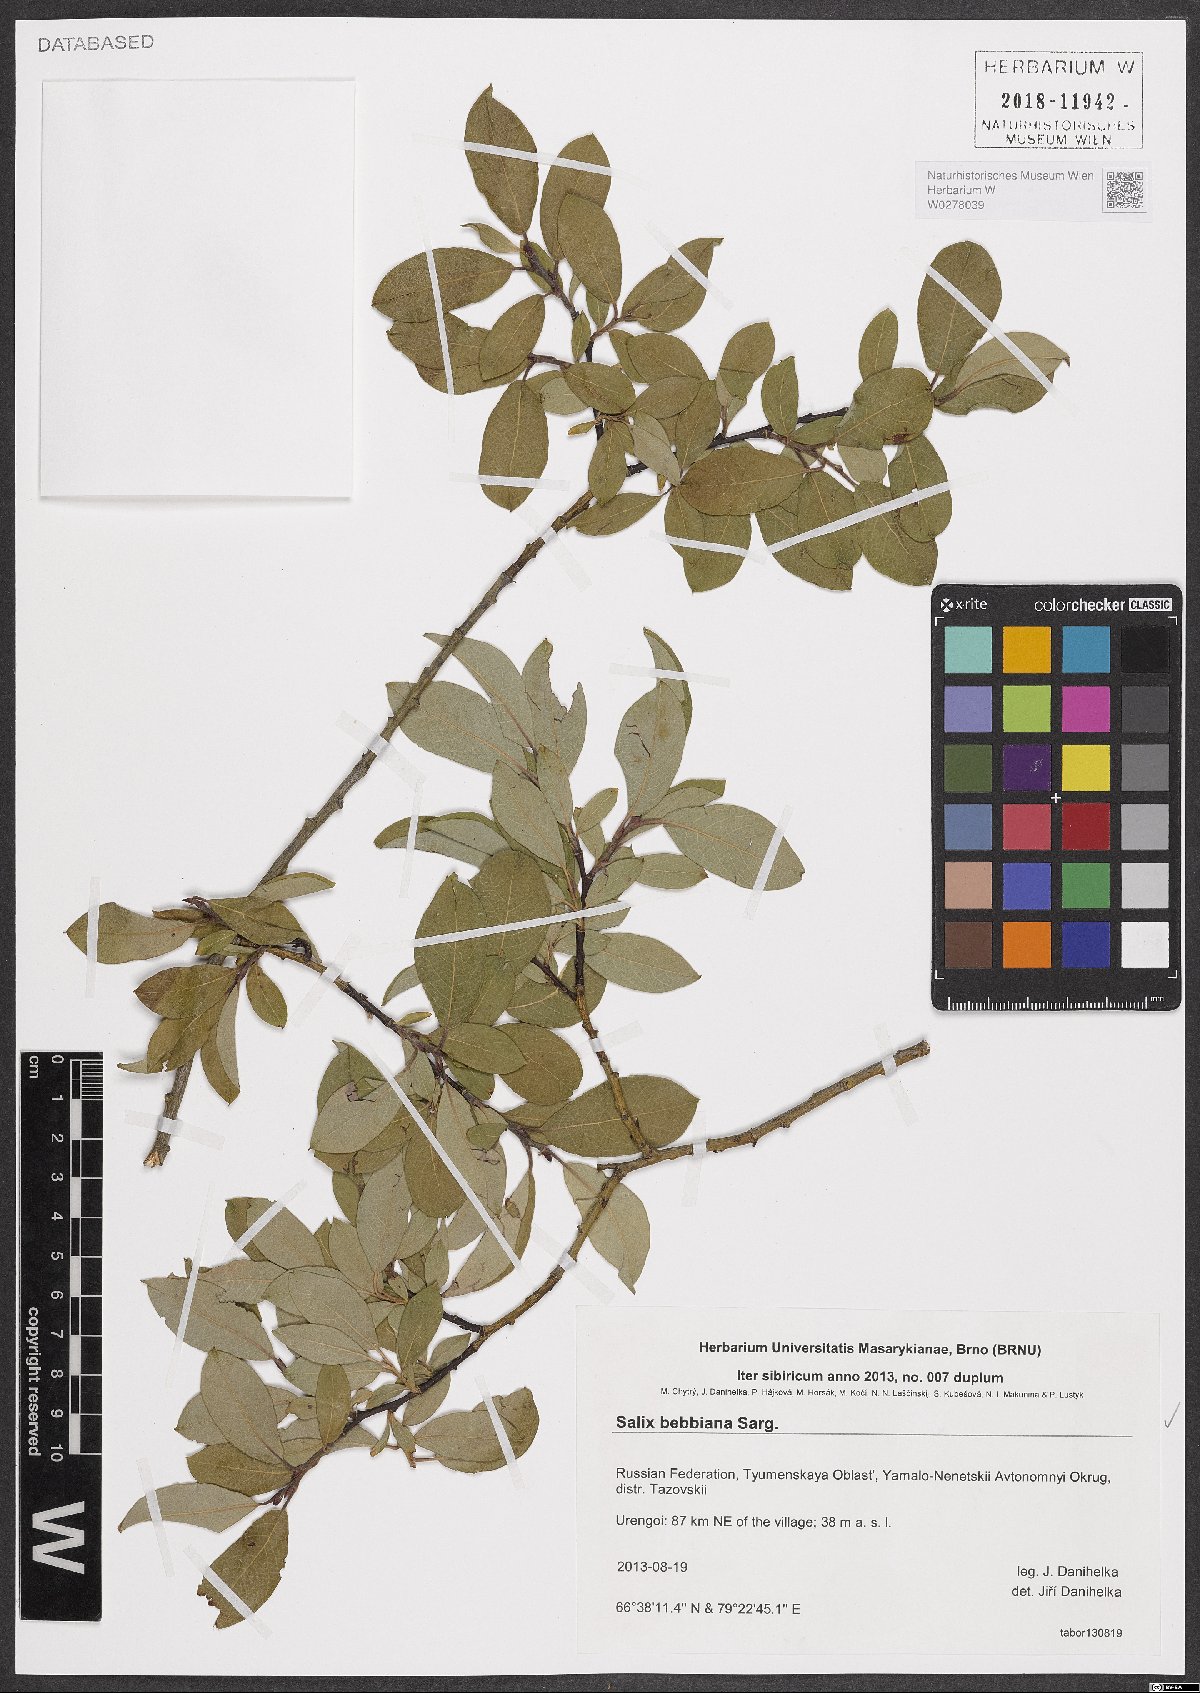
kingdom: Plantae
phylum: Tracheophyta
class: Magnoliopsida
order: Malpighiales
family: Salicaceae
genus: Salix
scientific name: Salix bebbiana
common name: Bebb's willow
